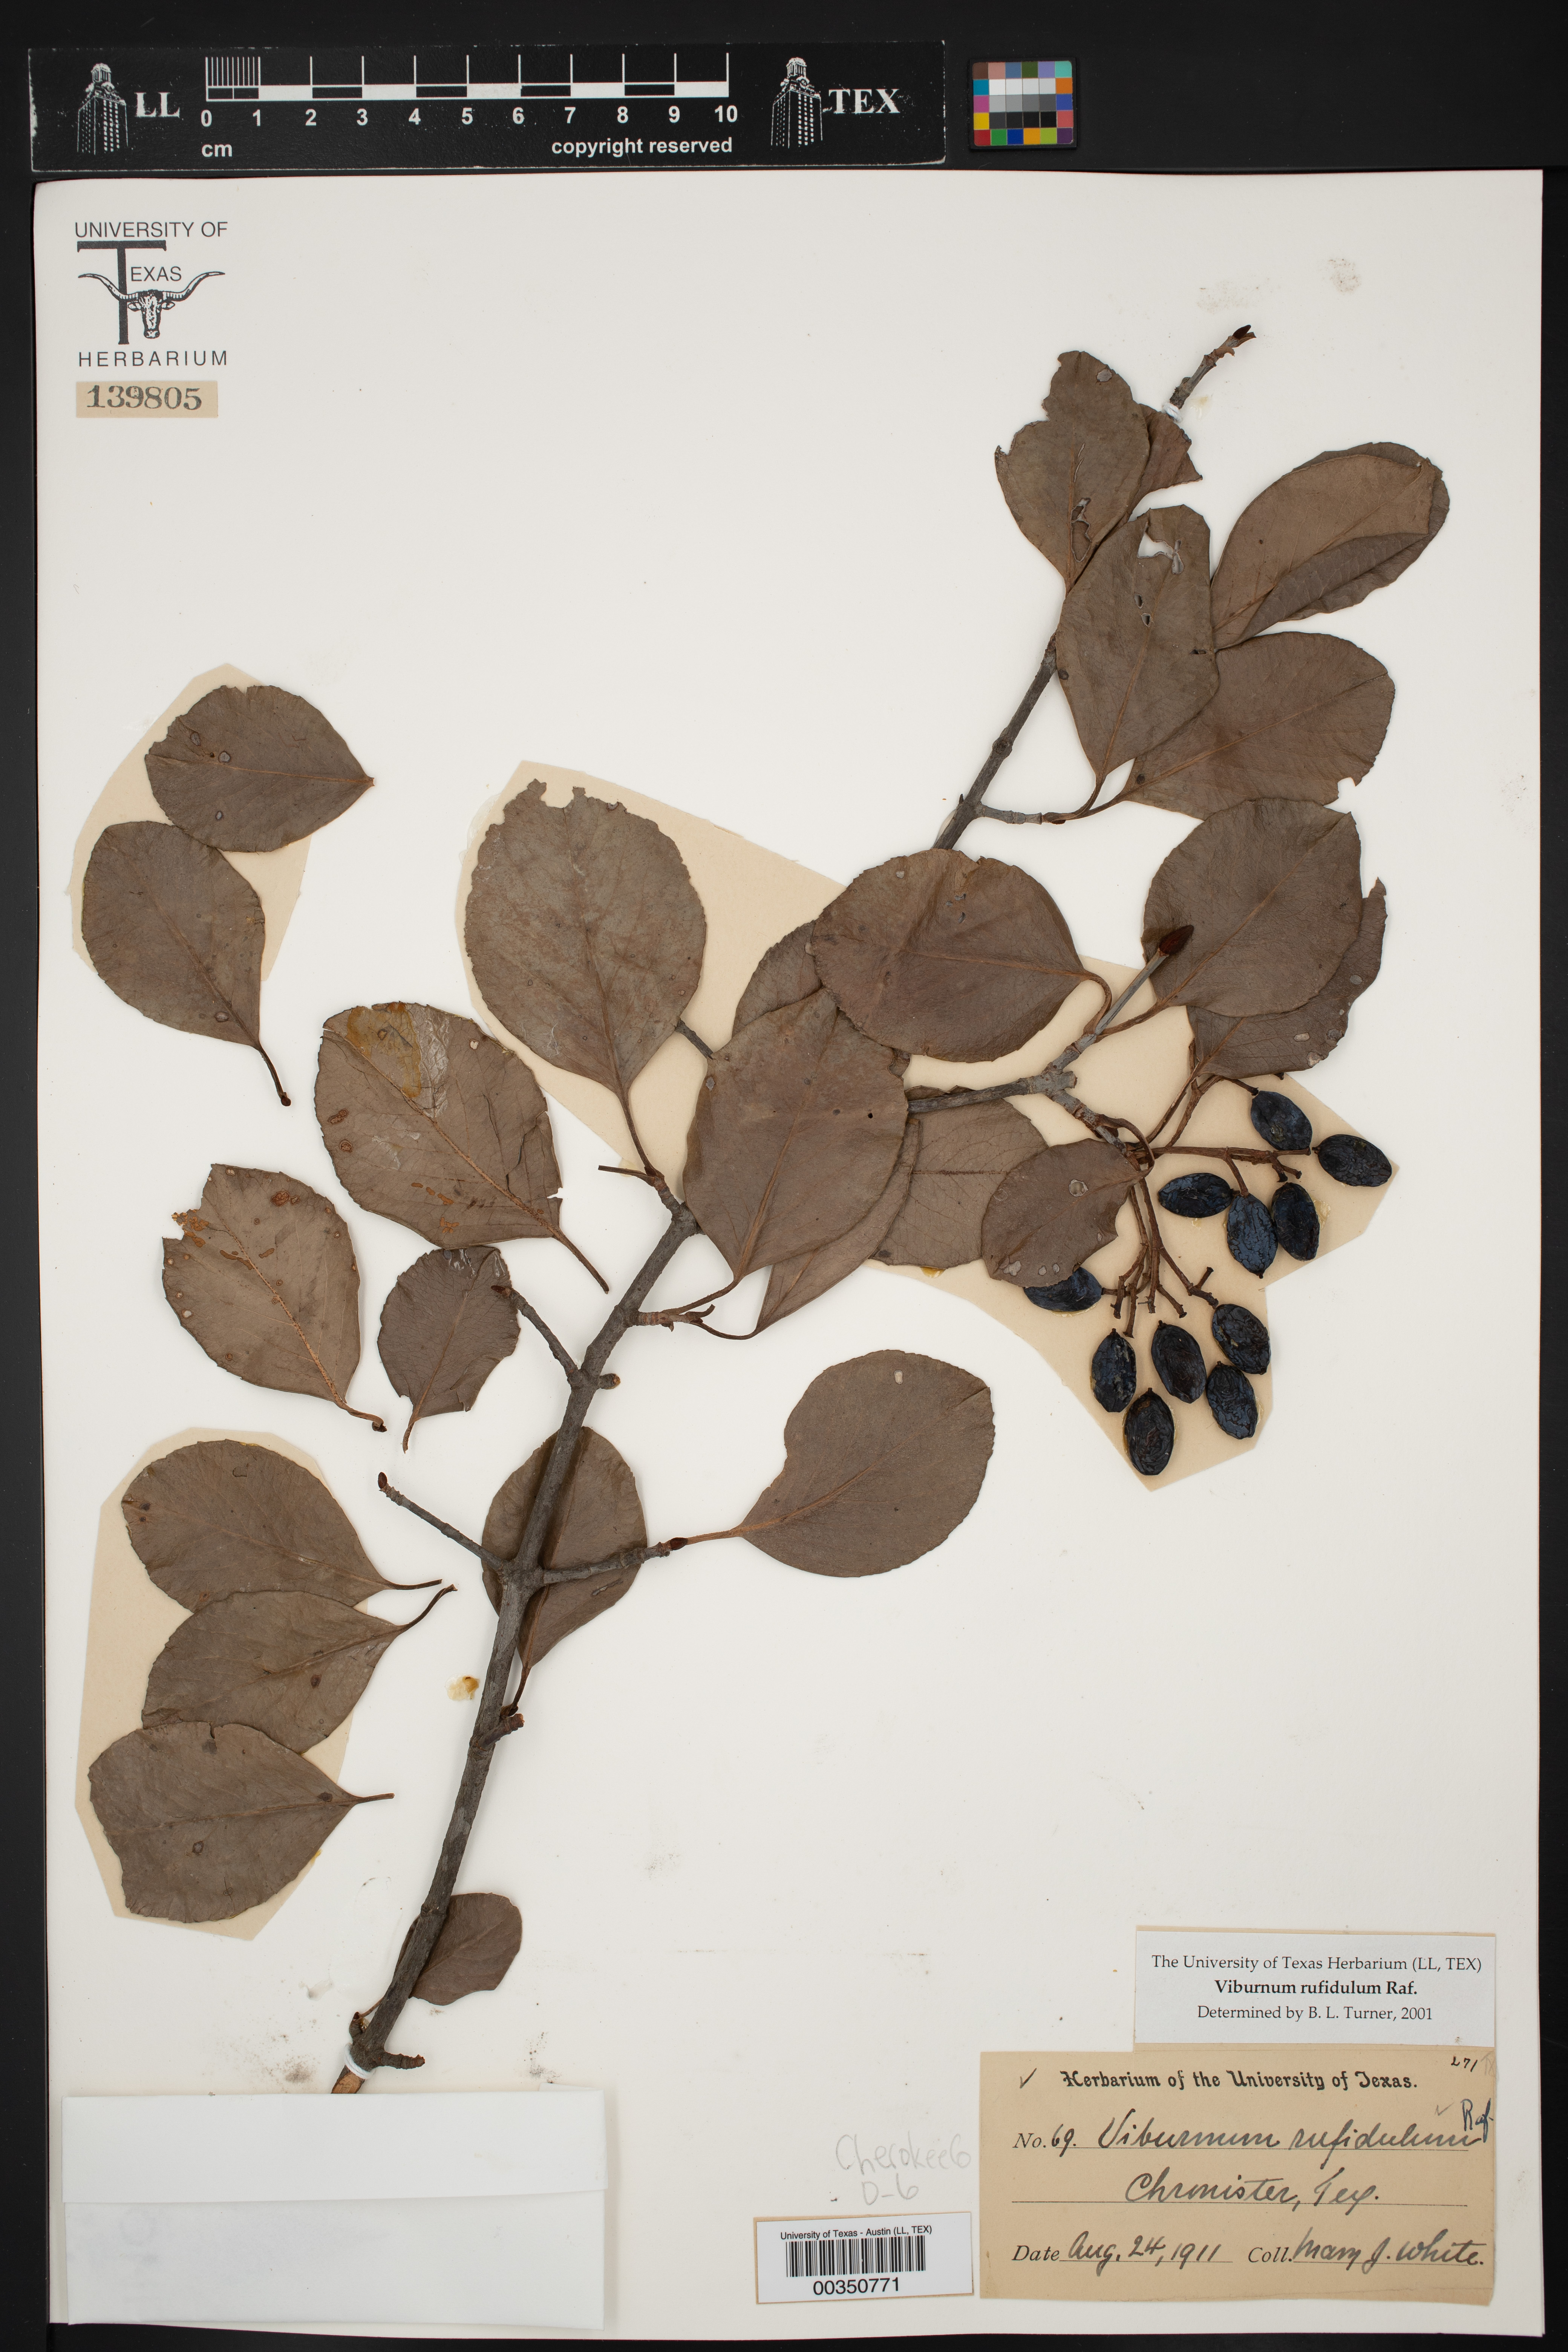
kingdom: Plantae
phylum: Tracheophyta
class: Magnoliopsida
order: Dipsacales
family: Viburnaceae
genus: Viburnum
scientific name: Viburnum rufidulum
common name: Blue haw
